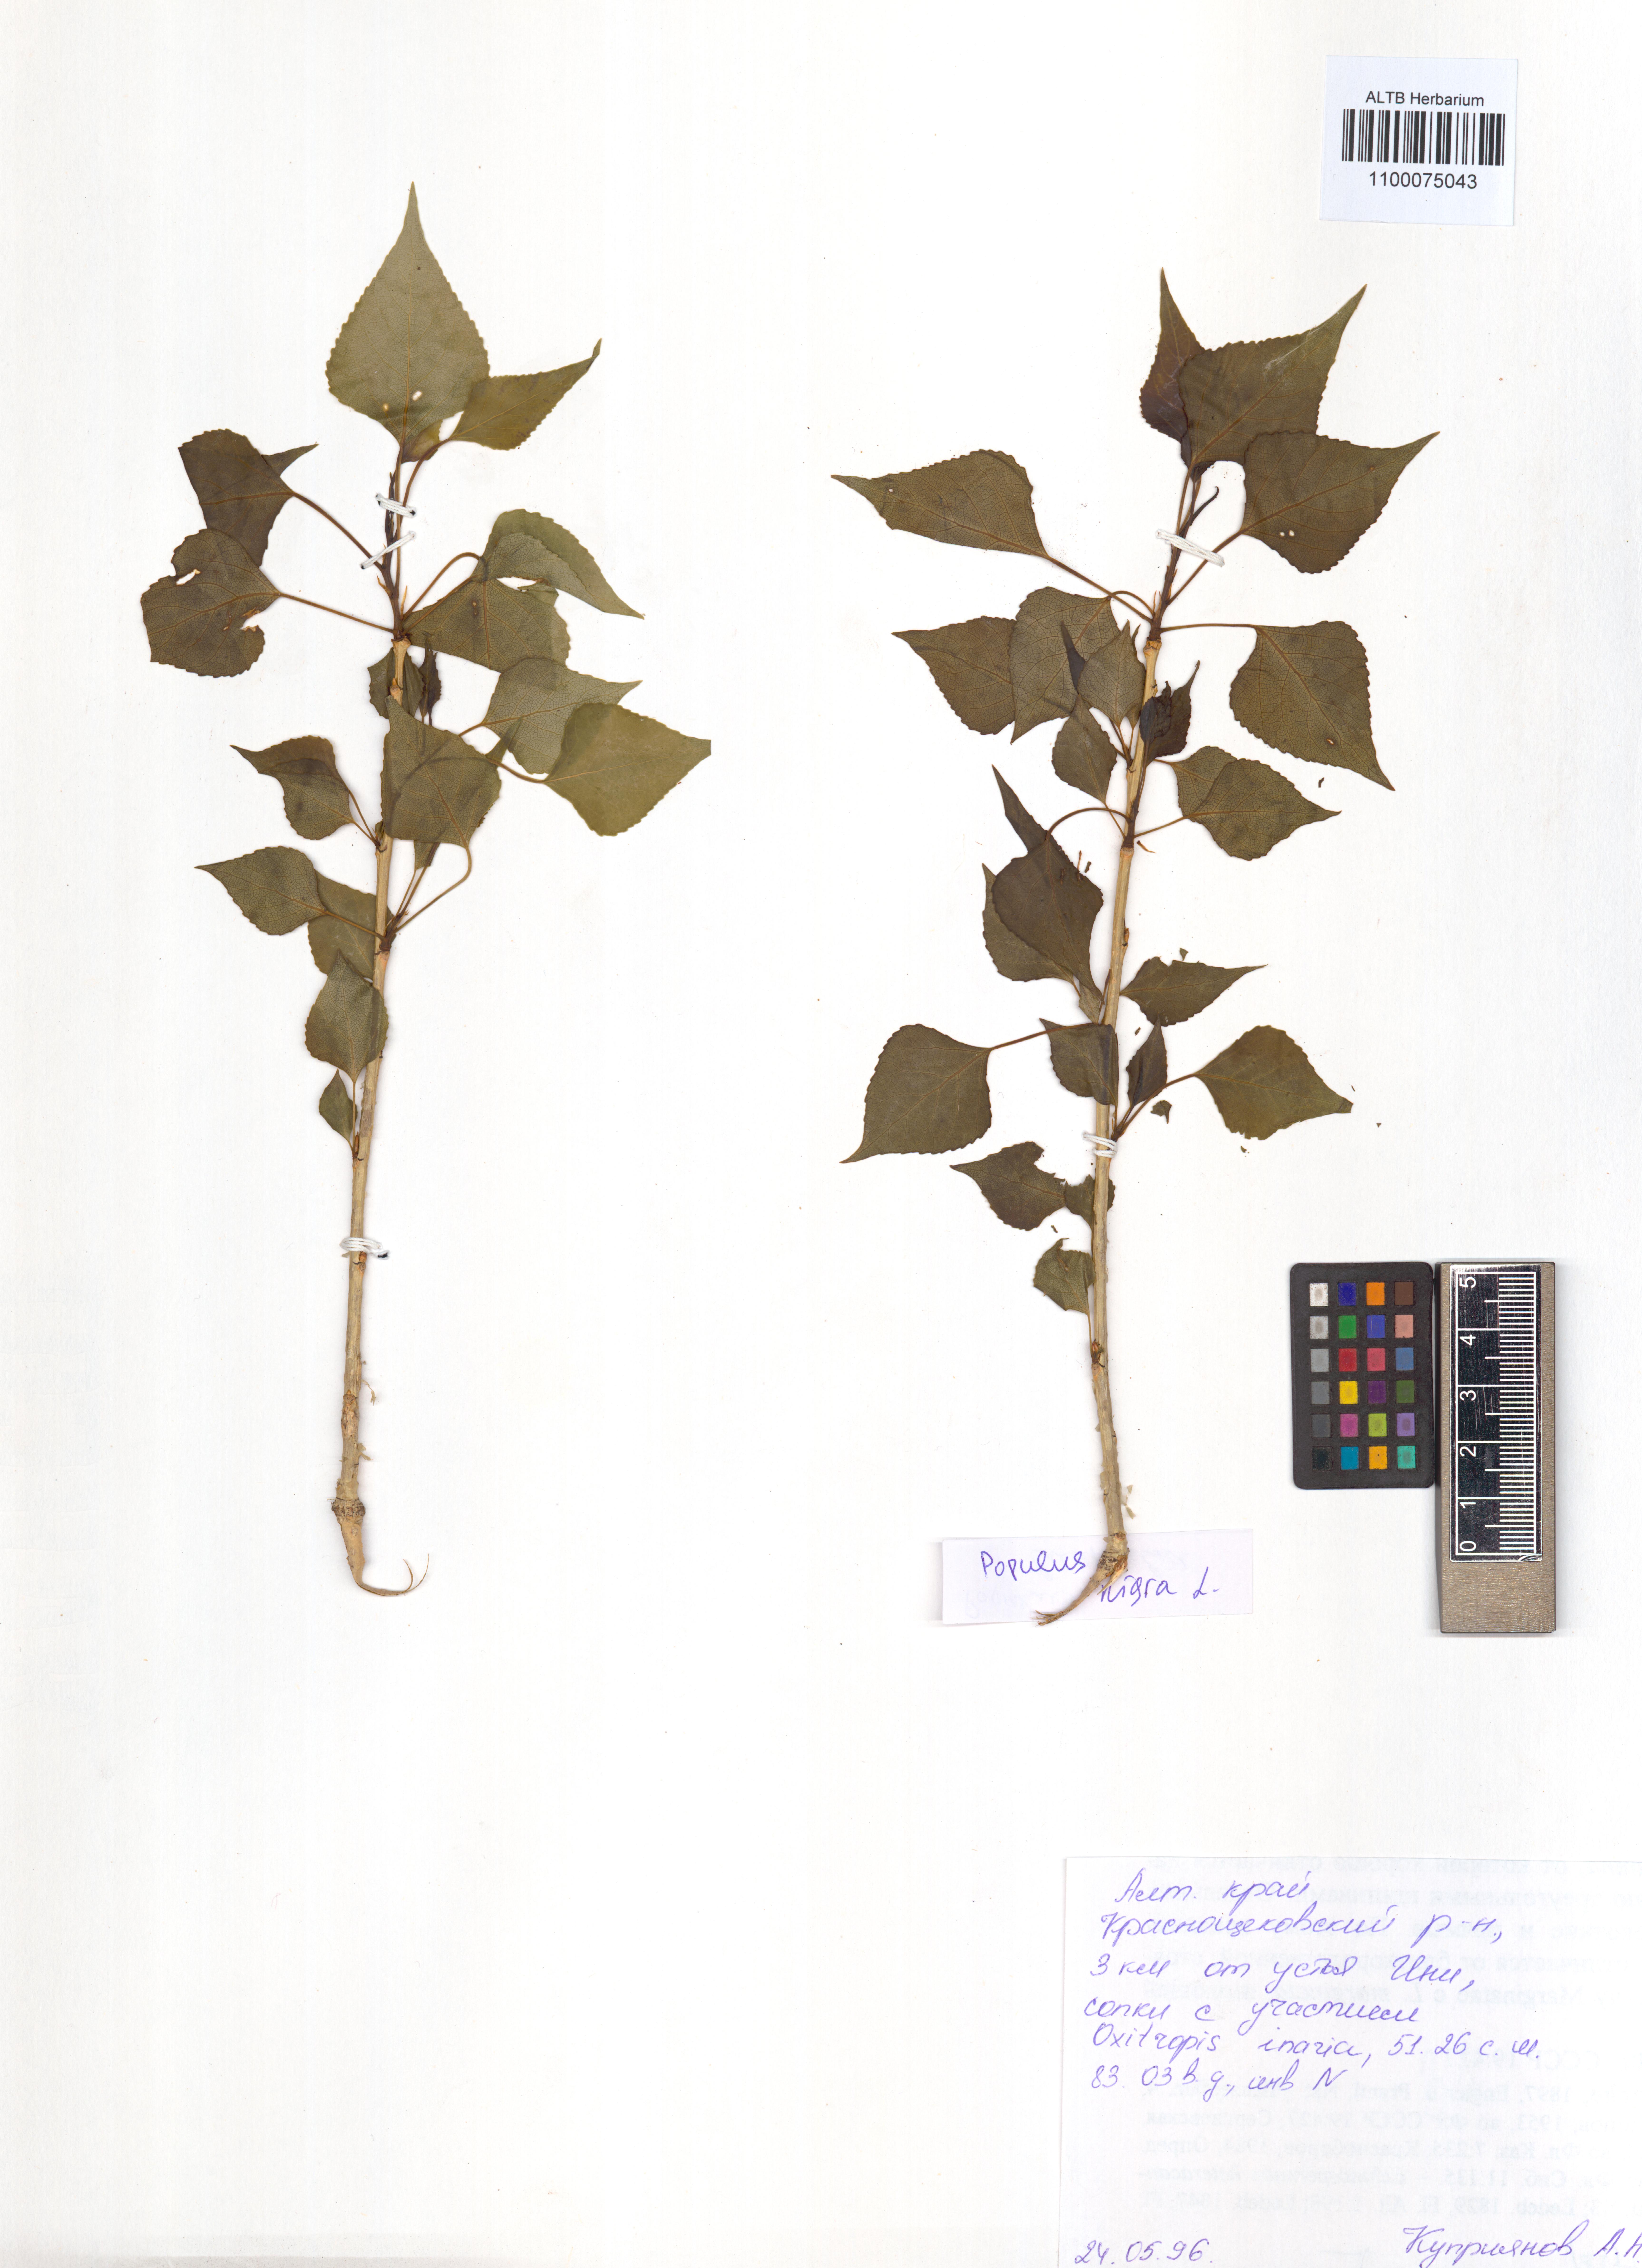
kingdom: Plantae
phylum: Tracheophyta
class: Magnoliopsida
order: Malpighiales
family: Salicaceae
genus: Populus
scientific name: Populus nigra
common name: Black poplar
